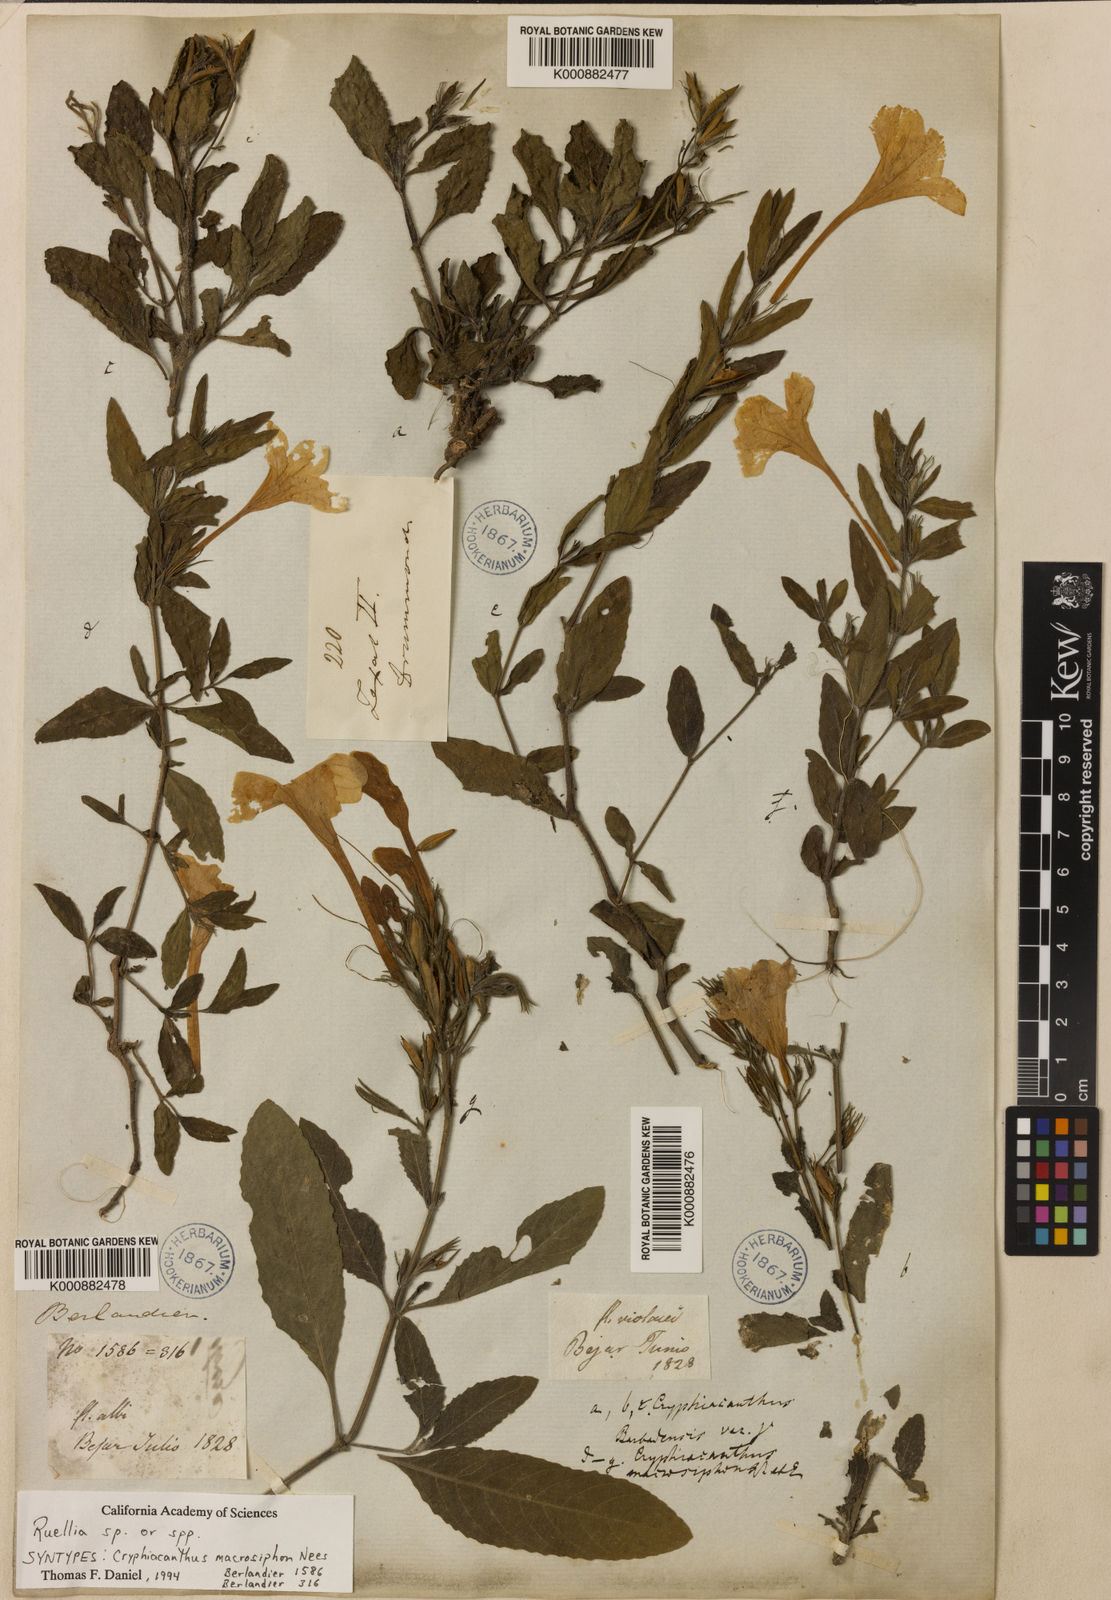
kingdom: Plantae
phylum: Tracheophyta
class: Magnoliopsida
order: Lamiales
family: Acanthaceae
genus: Ruellia
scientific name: Ruellia ciliatiflora
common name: Hairyflower wild petunia
